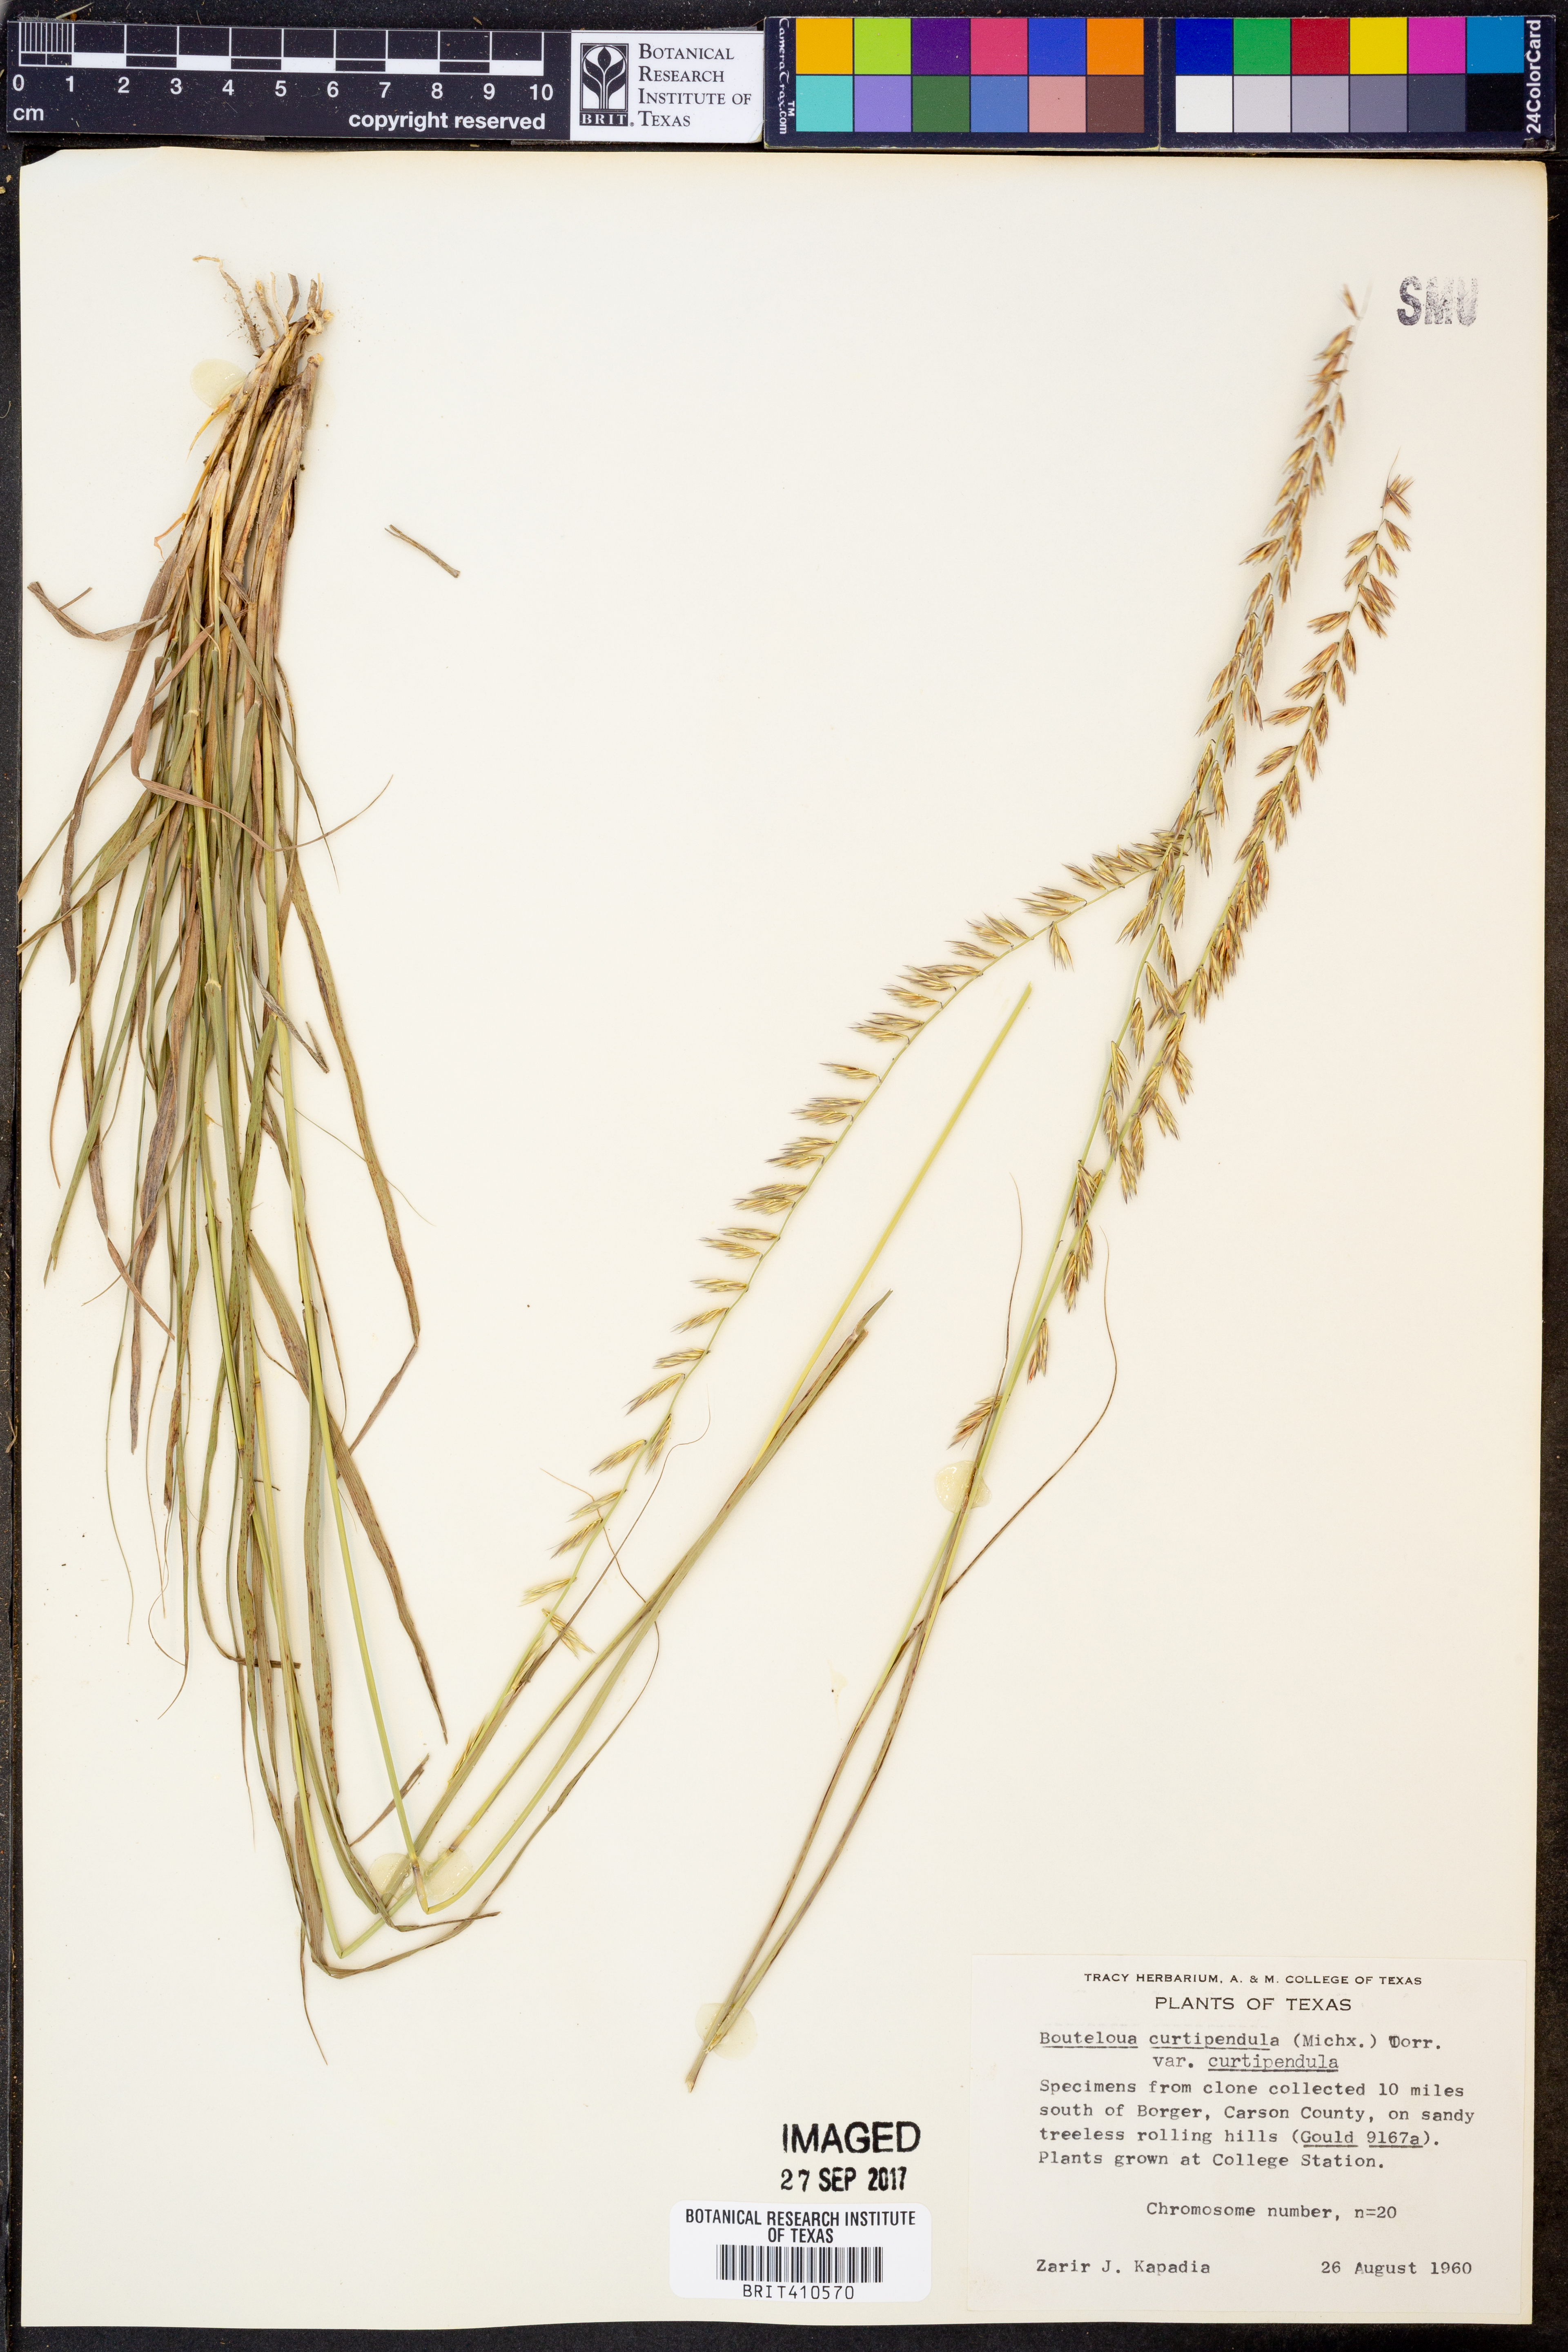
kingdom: Plantae
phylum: Tracheophyta
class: Liliopsida
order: Poales
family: Poaceae
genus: Bouteloua
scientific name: Bouteloua curtipendula
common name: Side-oats grama
